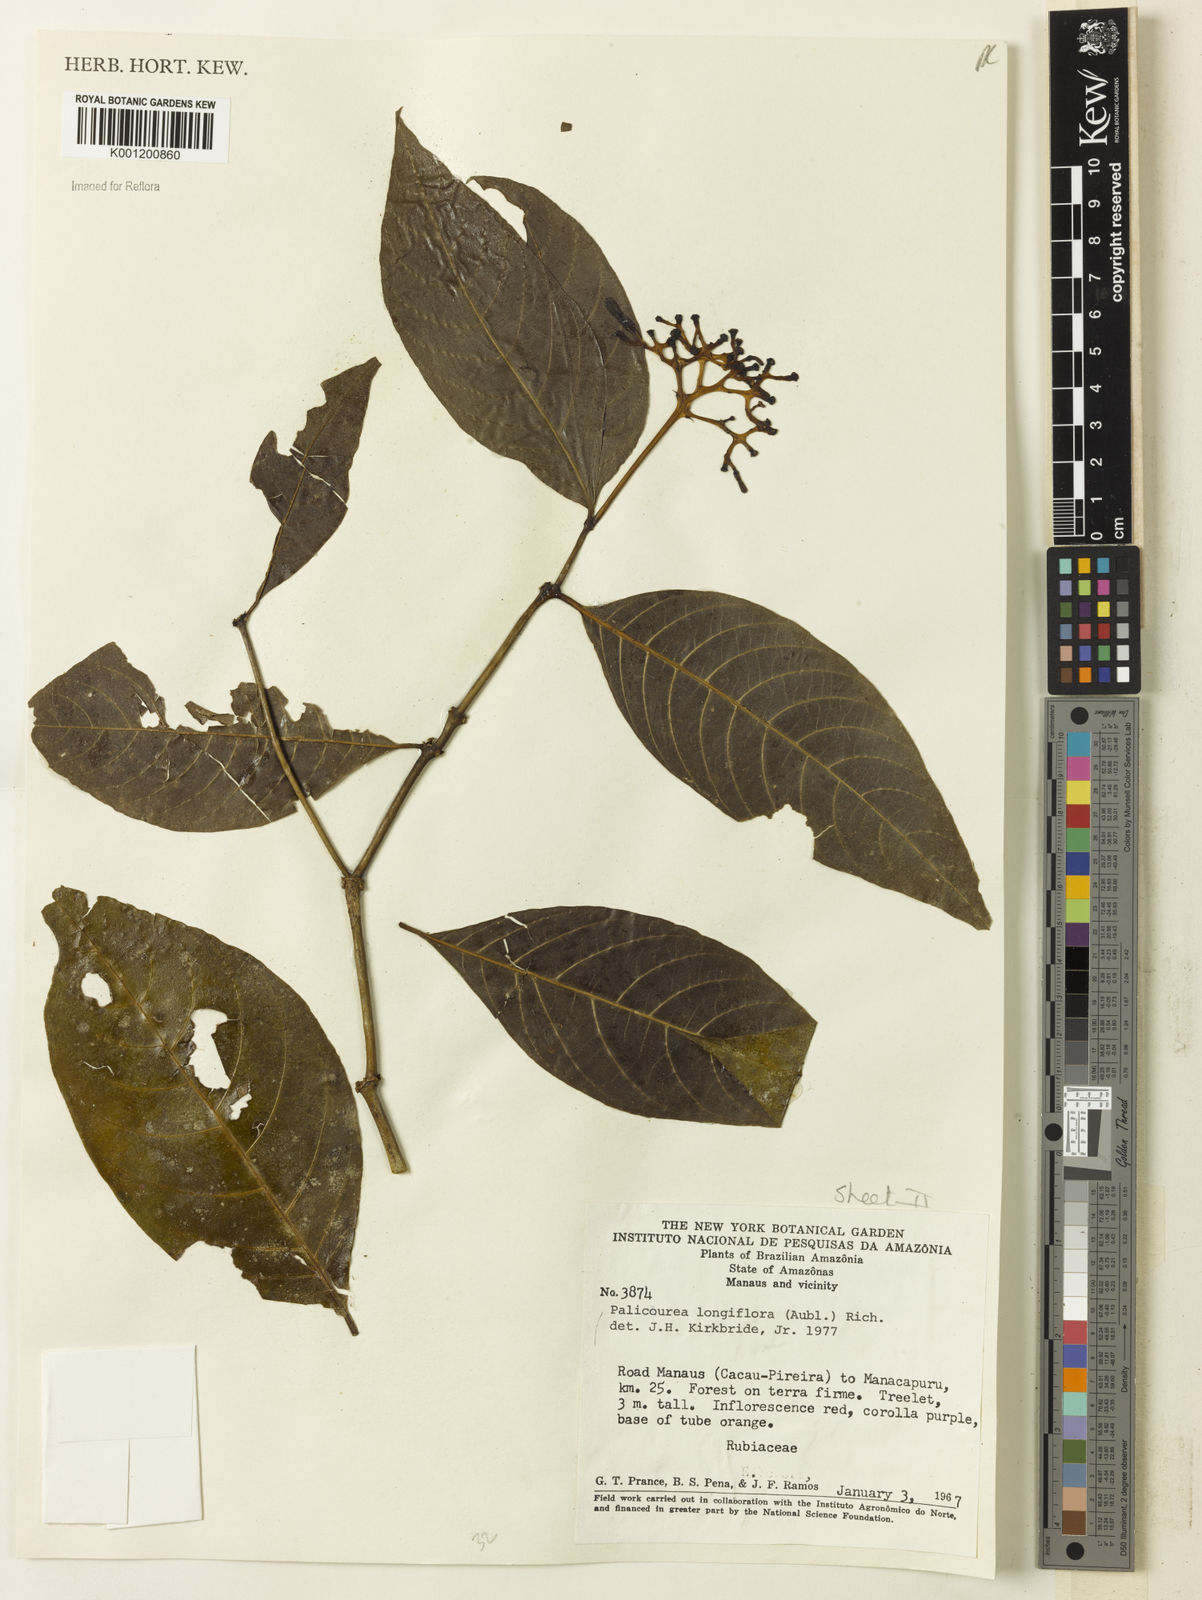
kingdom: Plantae
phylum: Tracheophyta
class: Magnoliopsida
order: Gentianales
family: Rubiaceae
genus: Palicourea
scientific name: Palicourea longiflora
